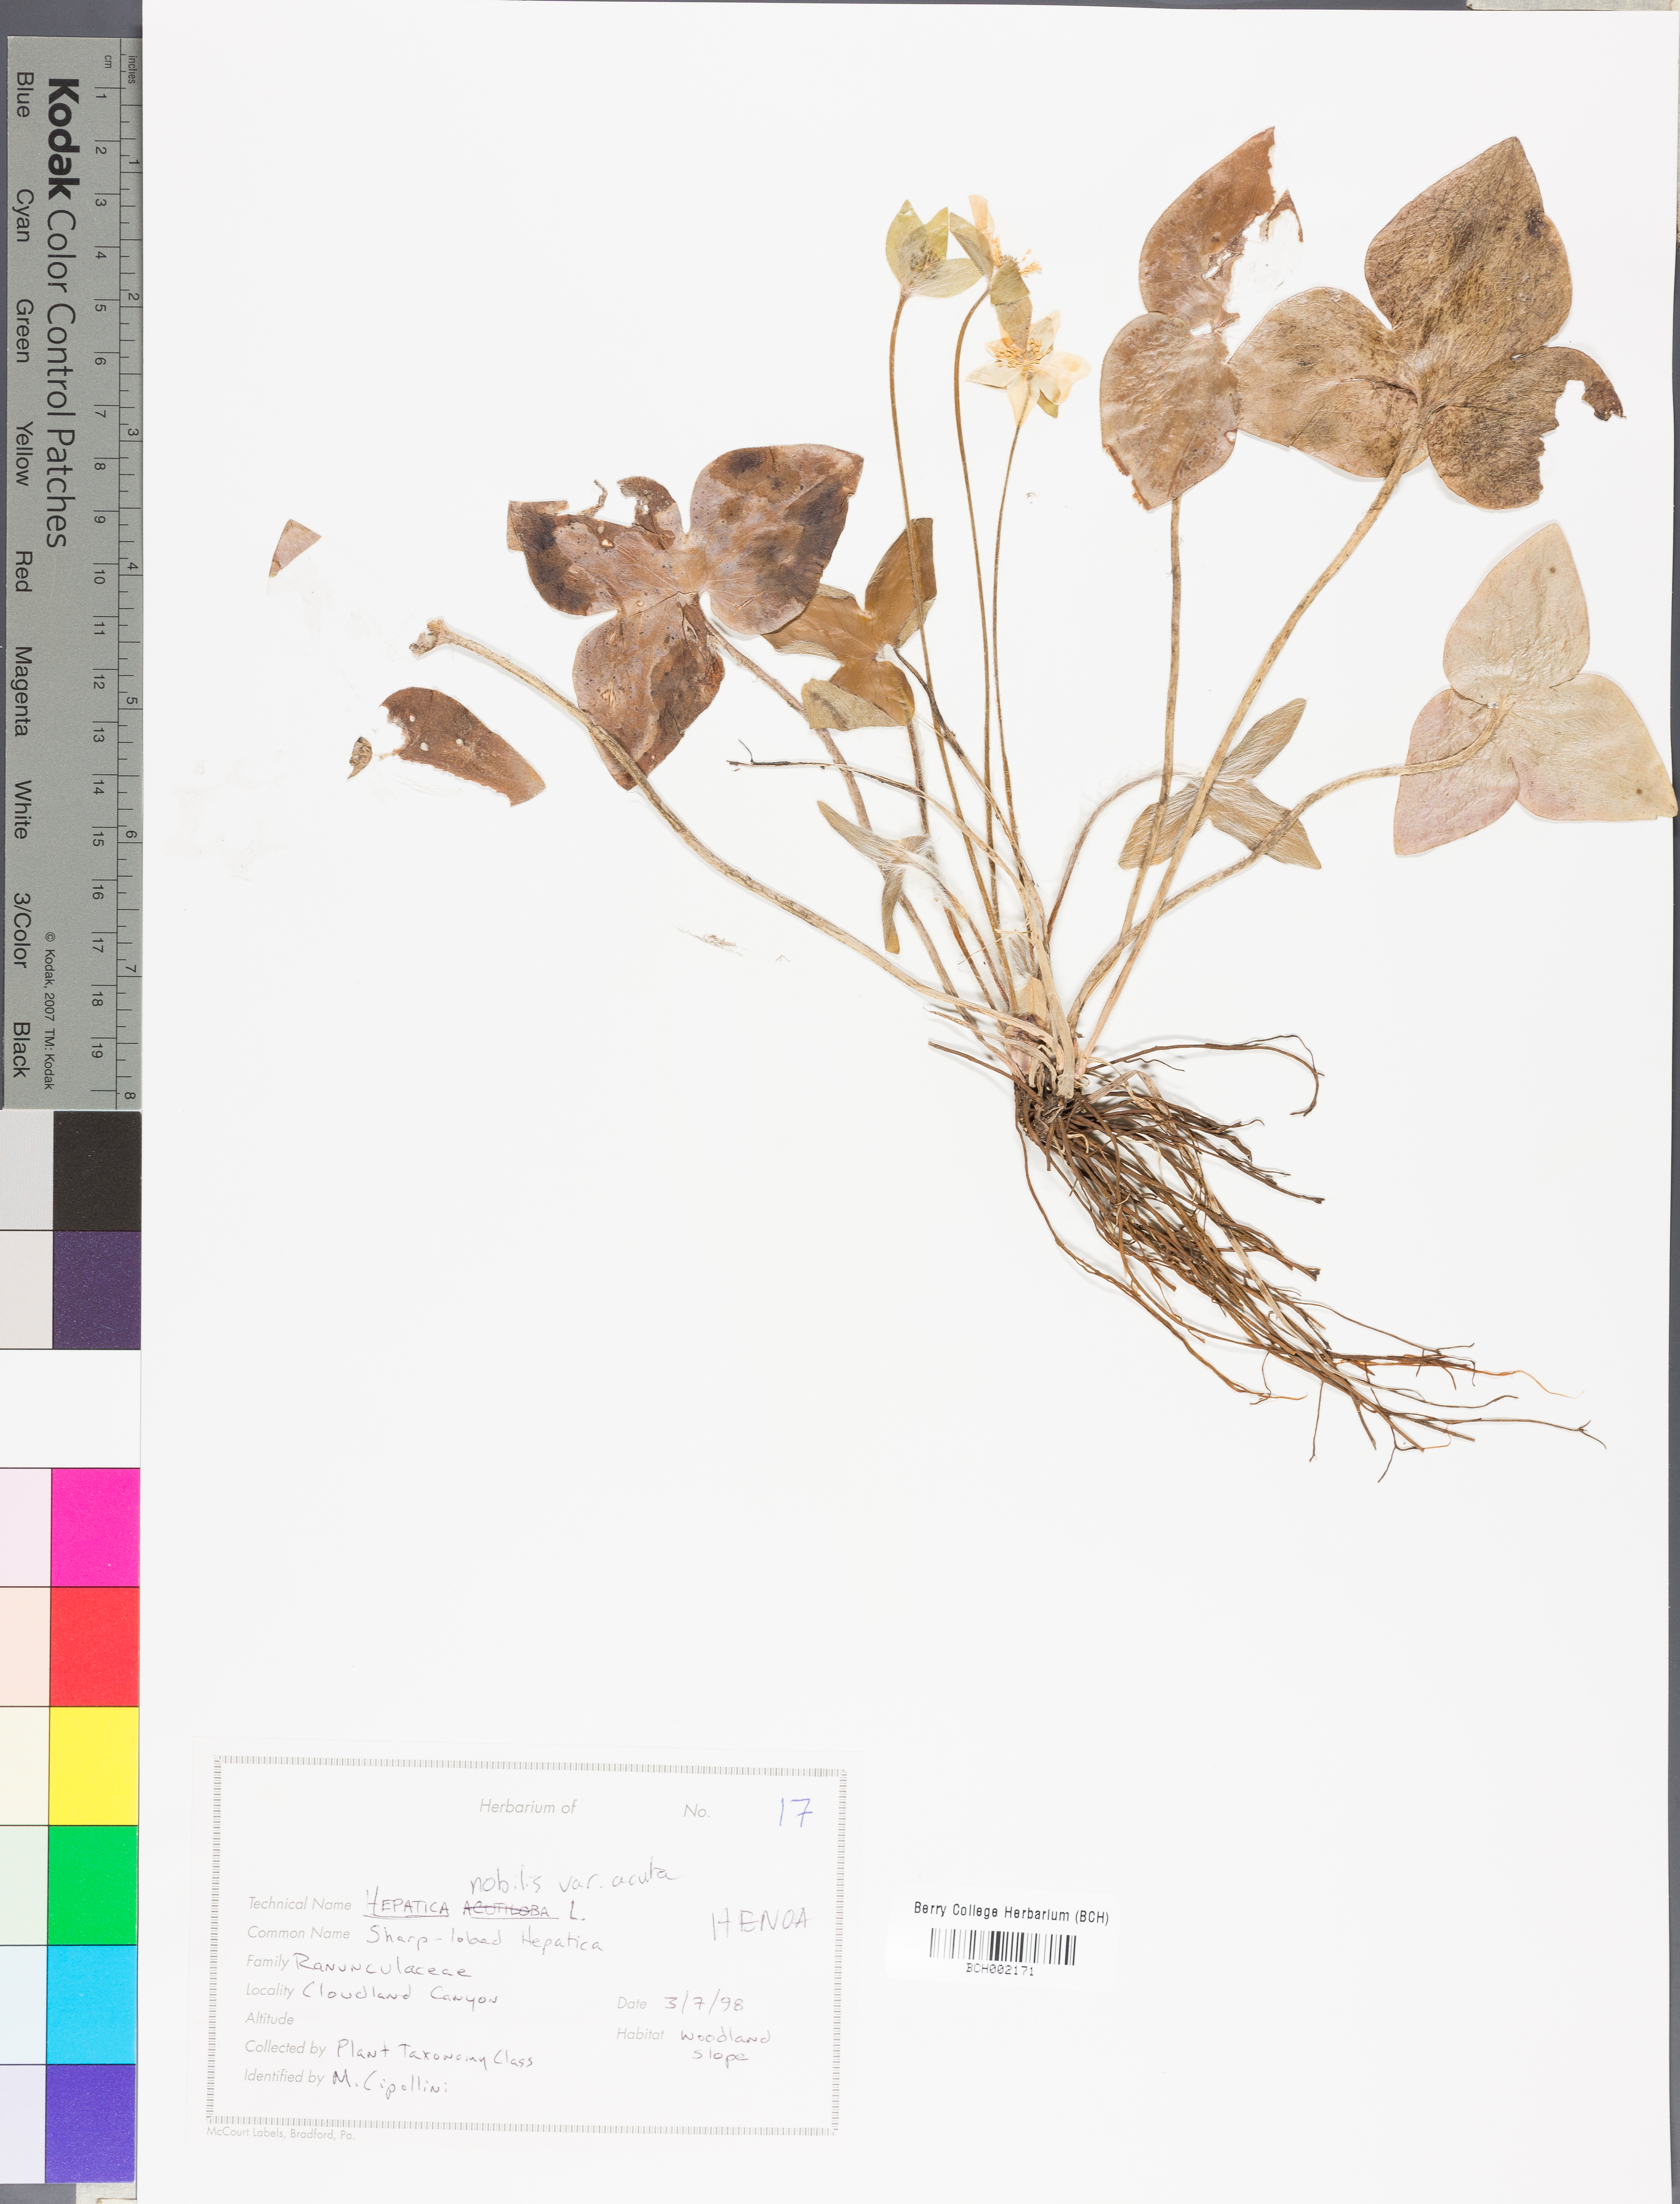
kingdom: Plantae
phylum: Tracheophyta
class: Magnoliopsida
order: Ranunculales
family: Ranunculaceae
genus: Hepatica
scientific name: Hepatica acutiloba
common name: Sharp-lobed hepatica
